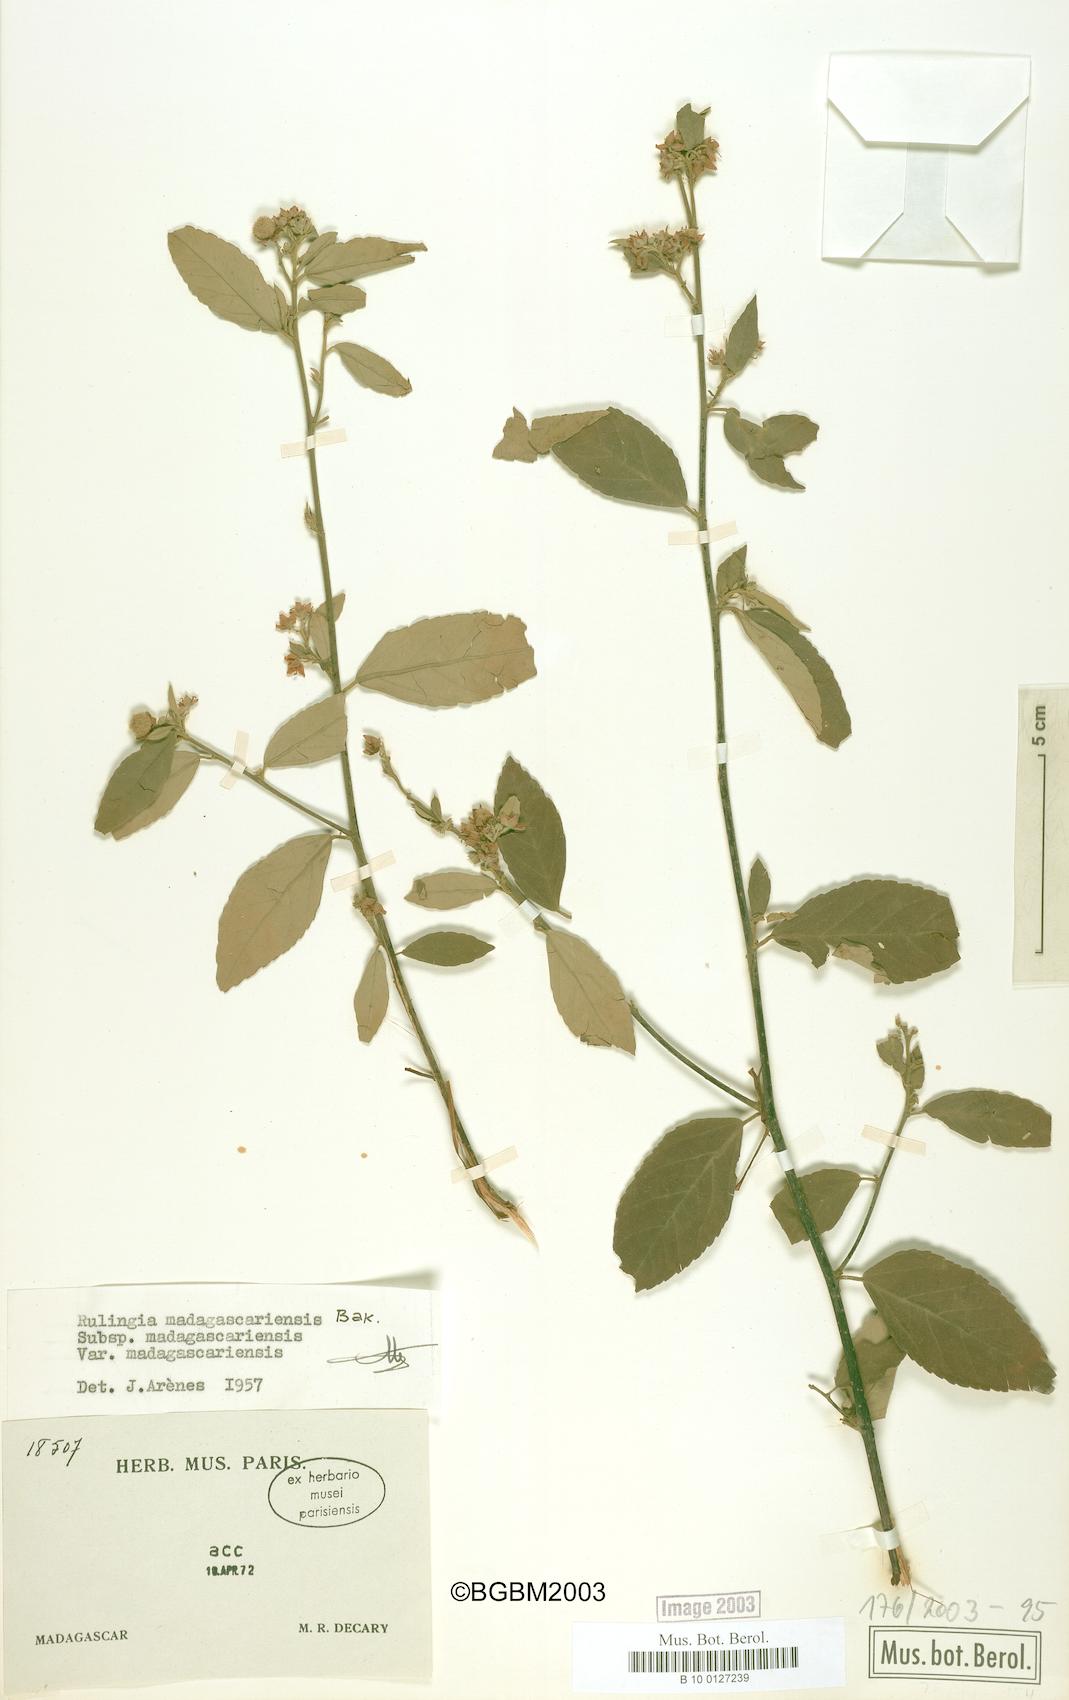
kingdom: Plantae
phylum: Tracheophyta
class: Magnoliopsida
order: Malvales
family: Malvaceae
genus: Commersonia
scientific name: Commersonia madagascariensis
